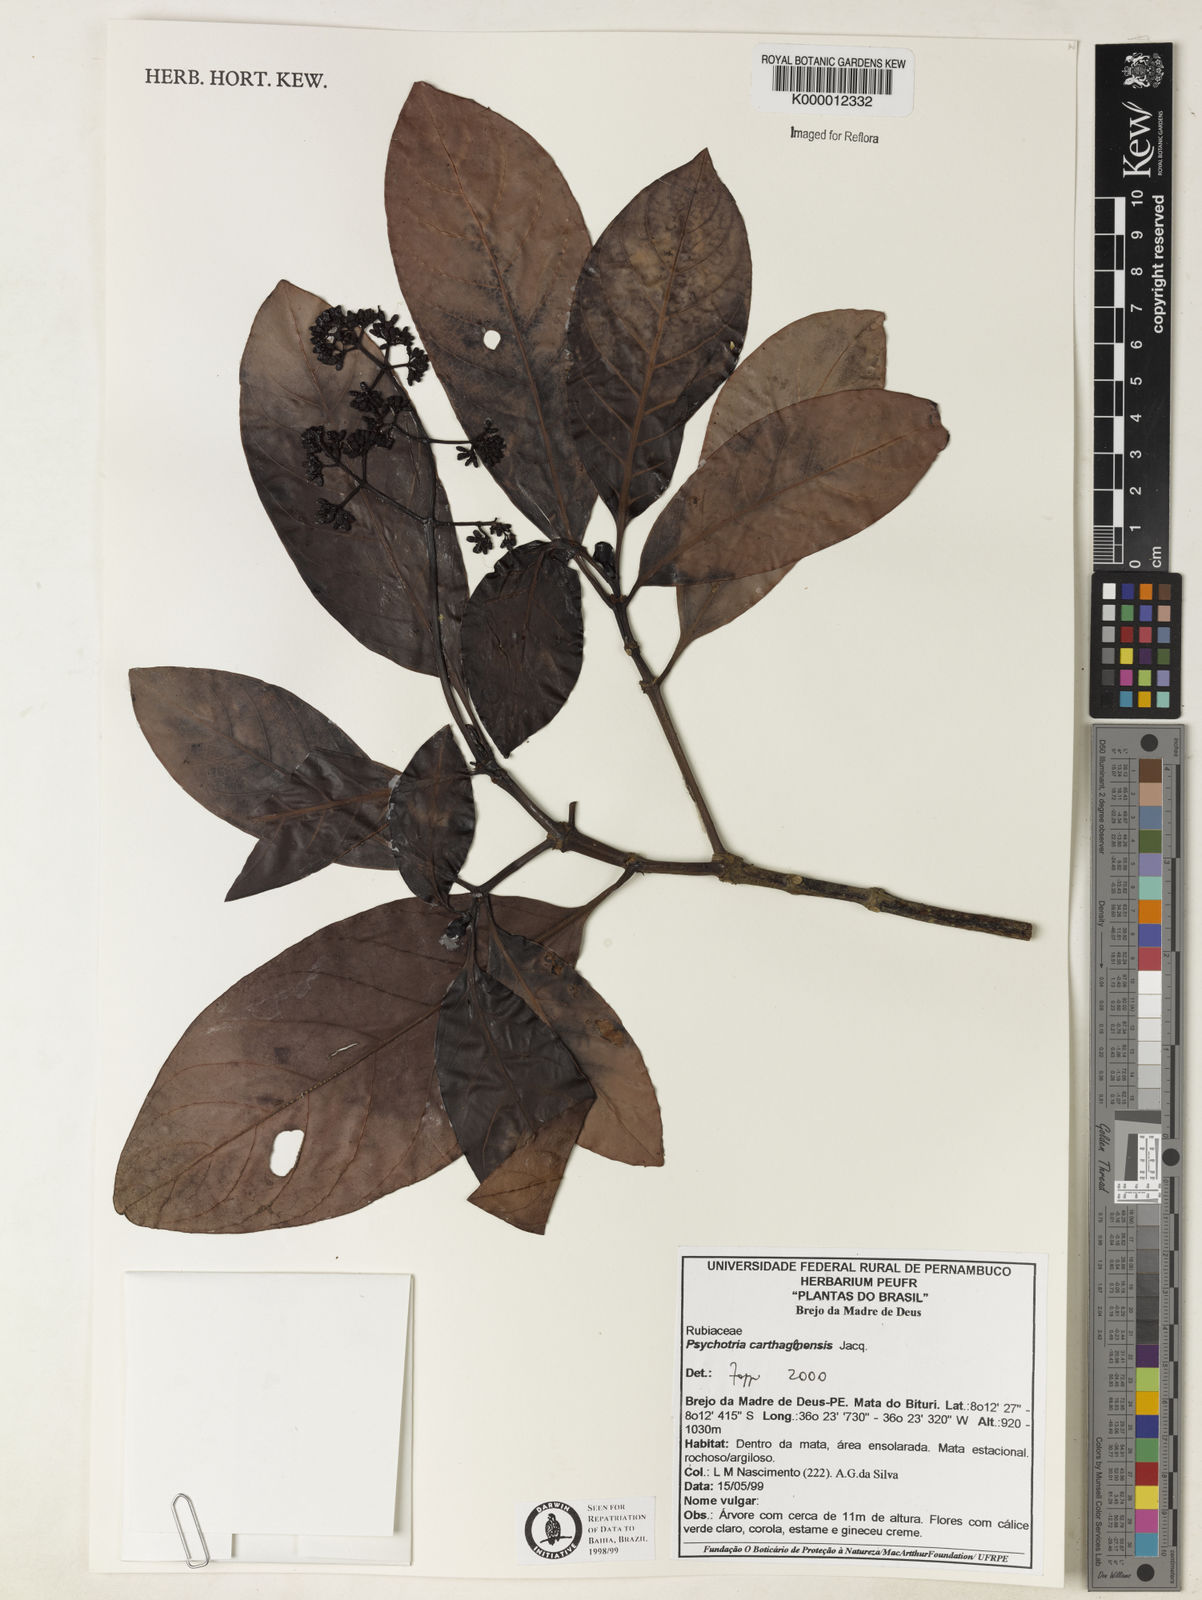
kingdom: Plantae
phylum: Tracheophyta
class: Magnoliopsida
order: Gentianales
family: Rubiaceae
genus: Psychotria
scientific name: Psychotria carthagenensis
